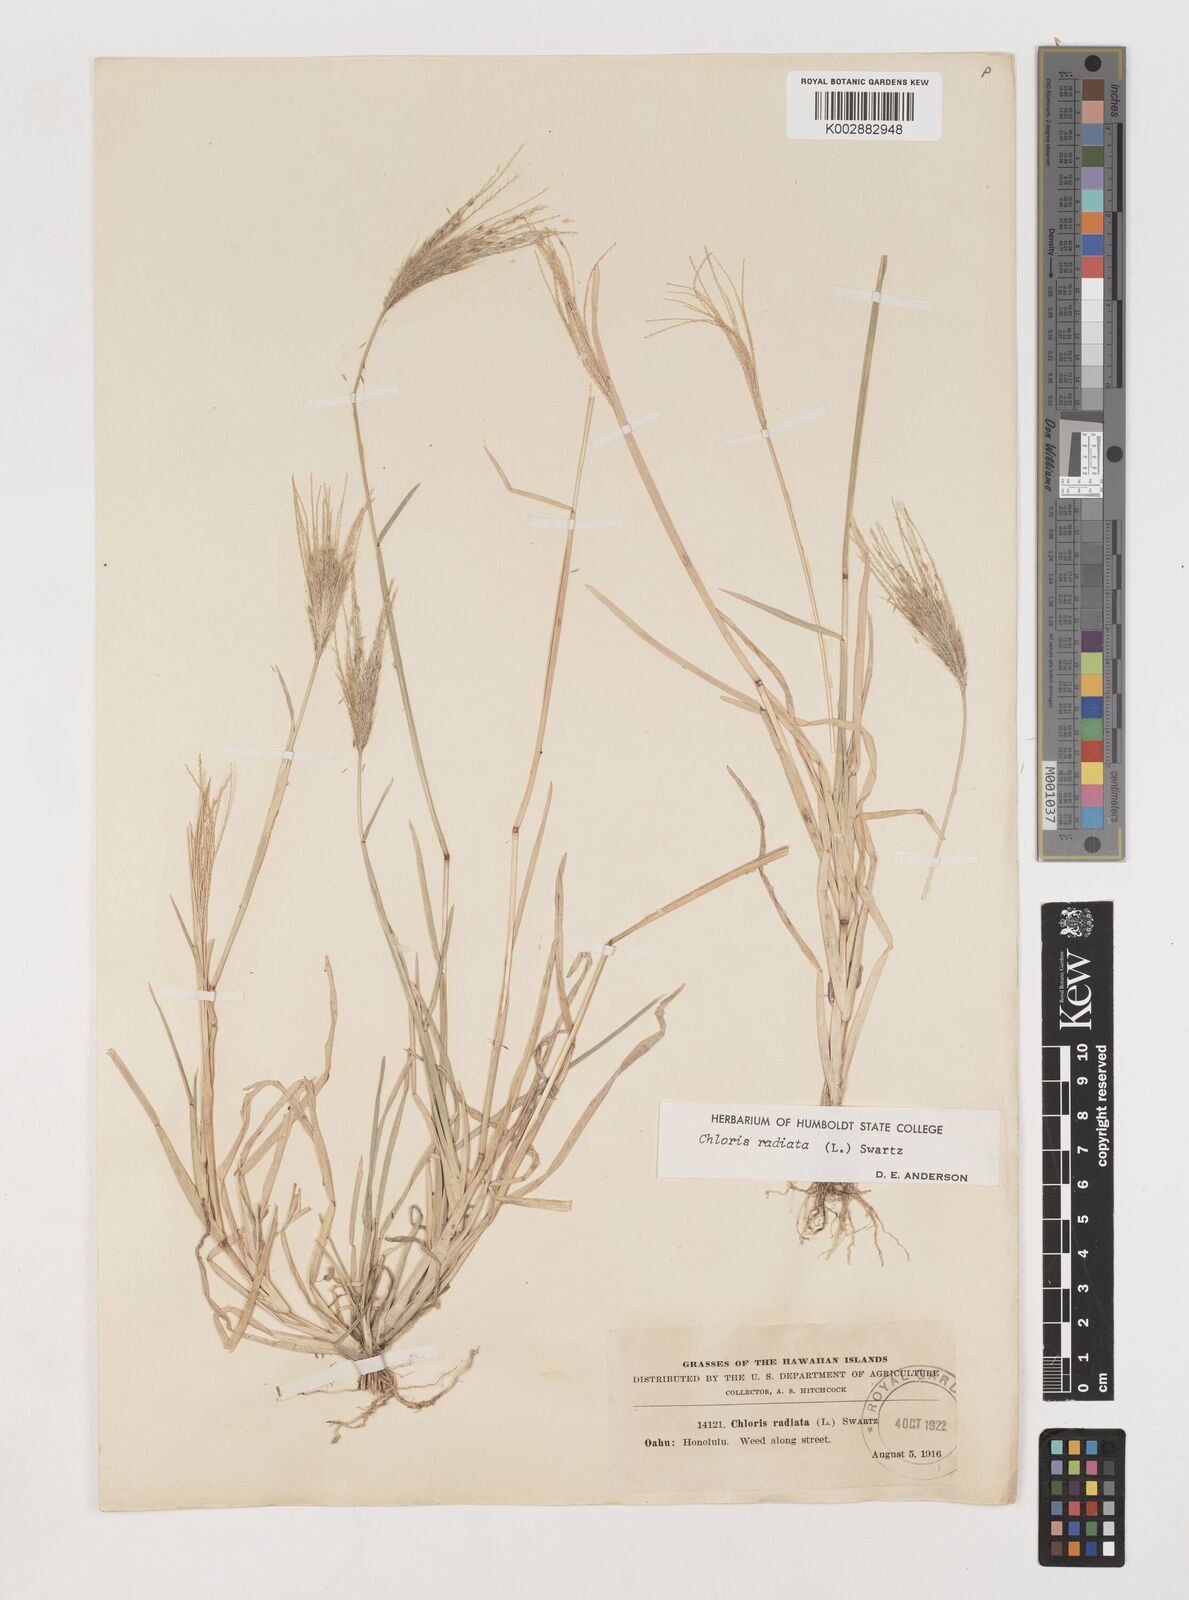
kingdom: Plantae
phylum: Tracheophyta
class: Liliopsida
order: Poales
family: Poaceae
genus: Chloris
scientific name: Chloris radiata
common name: Radiate fingergrass
